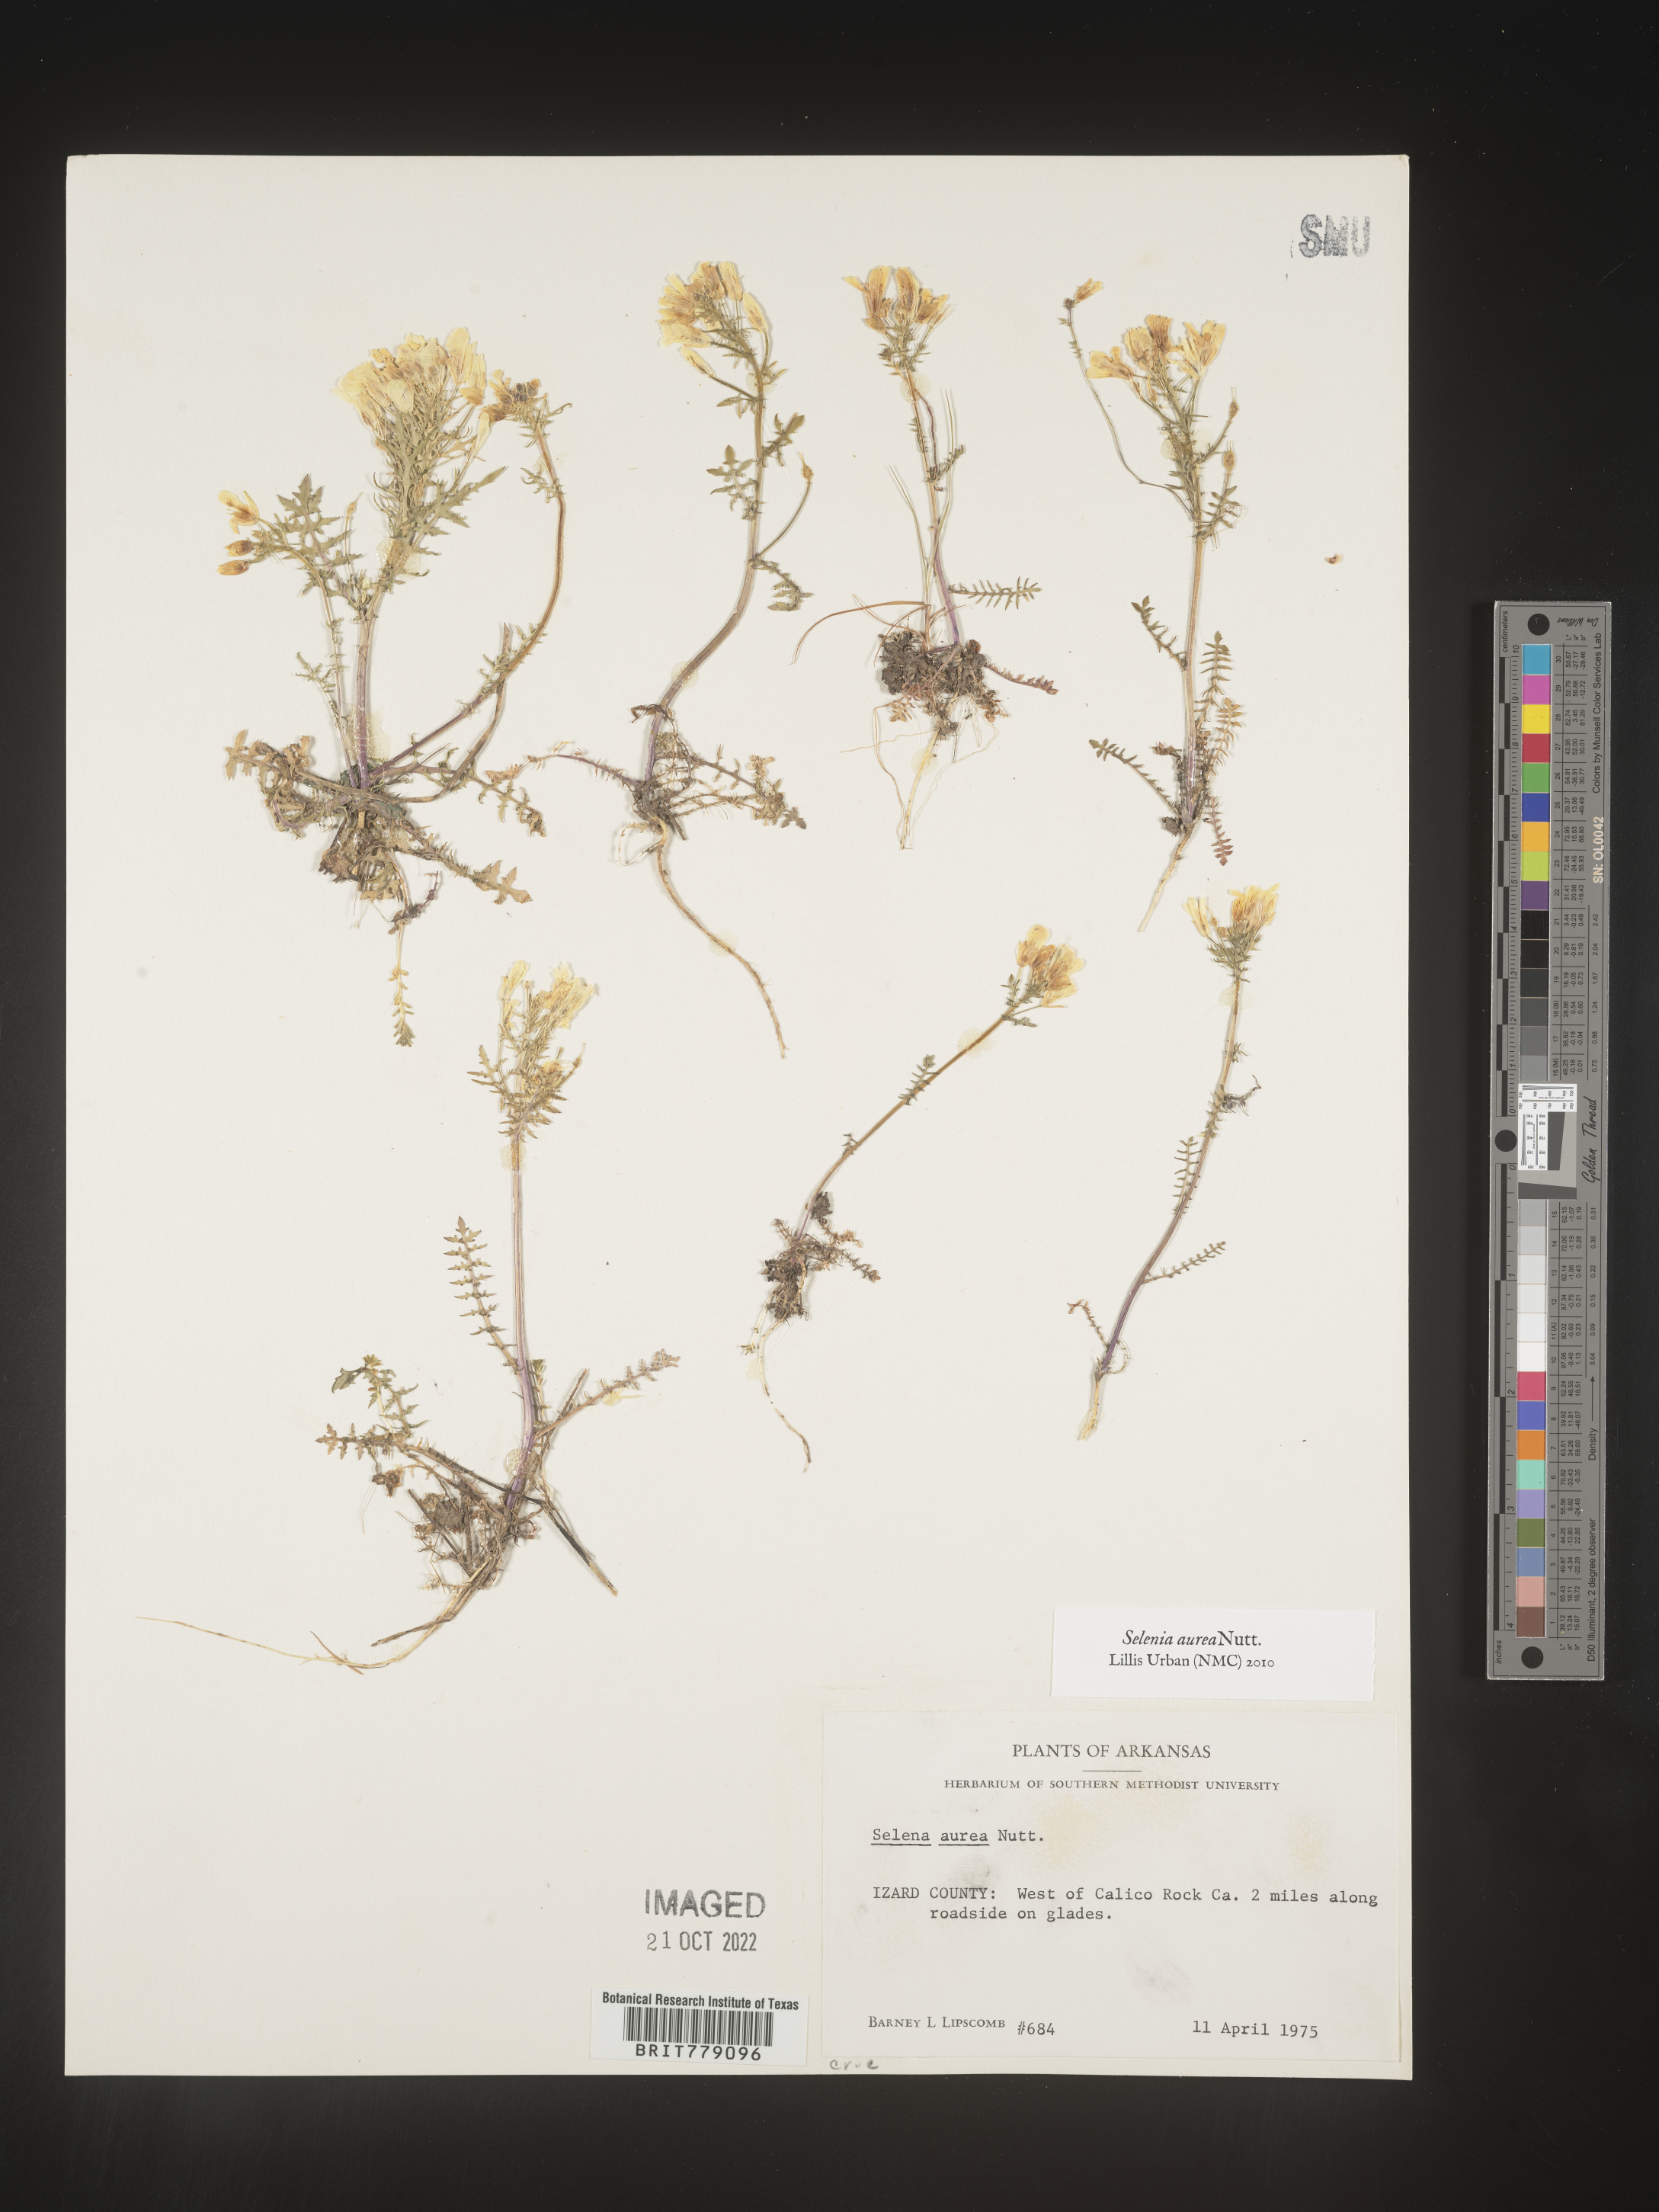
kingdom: Plantae
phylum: Tracheophyta
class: Magnoliopsida
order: Brassicales
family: Brassicaceae
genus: Selenia
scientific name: Selenia
